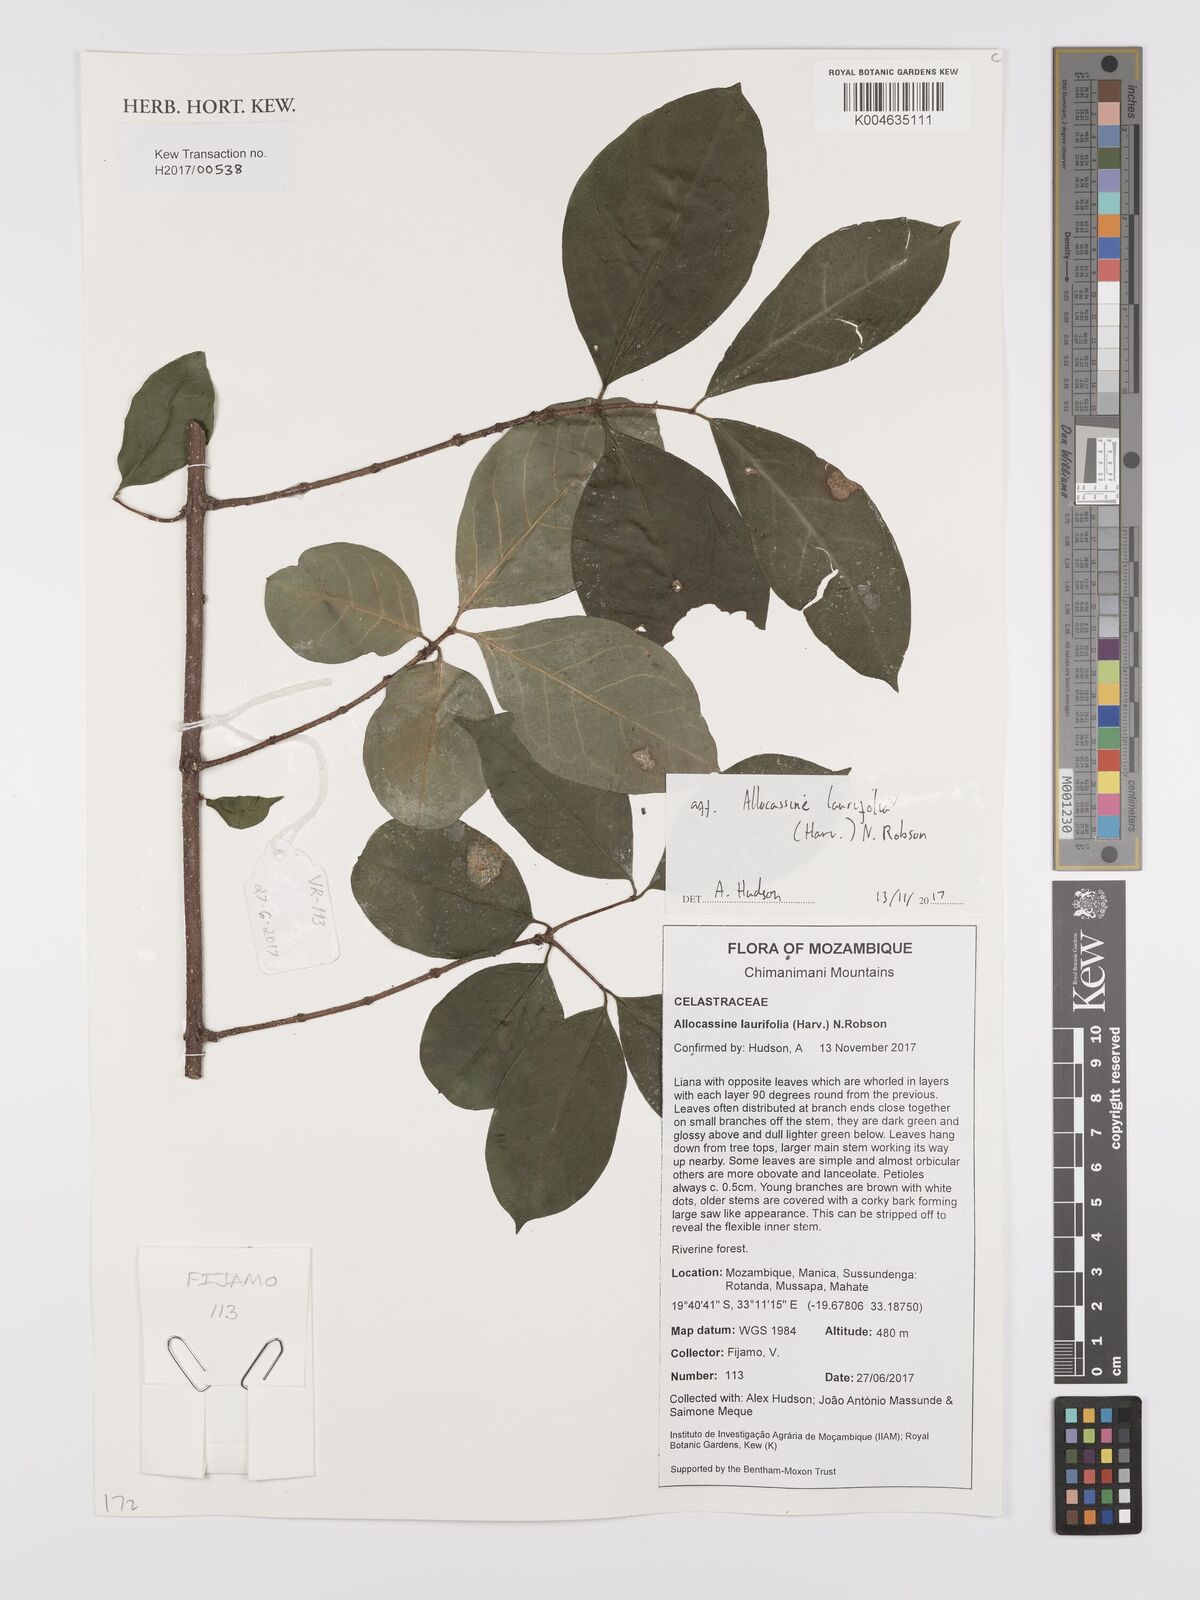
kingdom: Plantae
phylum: Tracheophyta
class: Magnoliopsida
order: Celastrales
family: Celastraceae
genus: Allocassine
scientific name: Allocassine laurifolia
